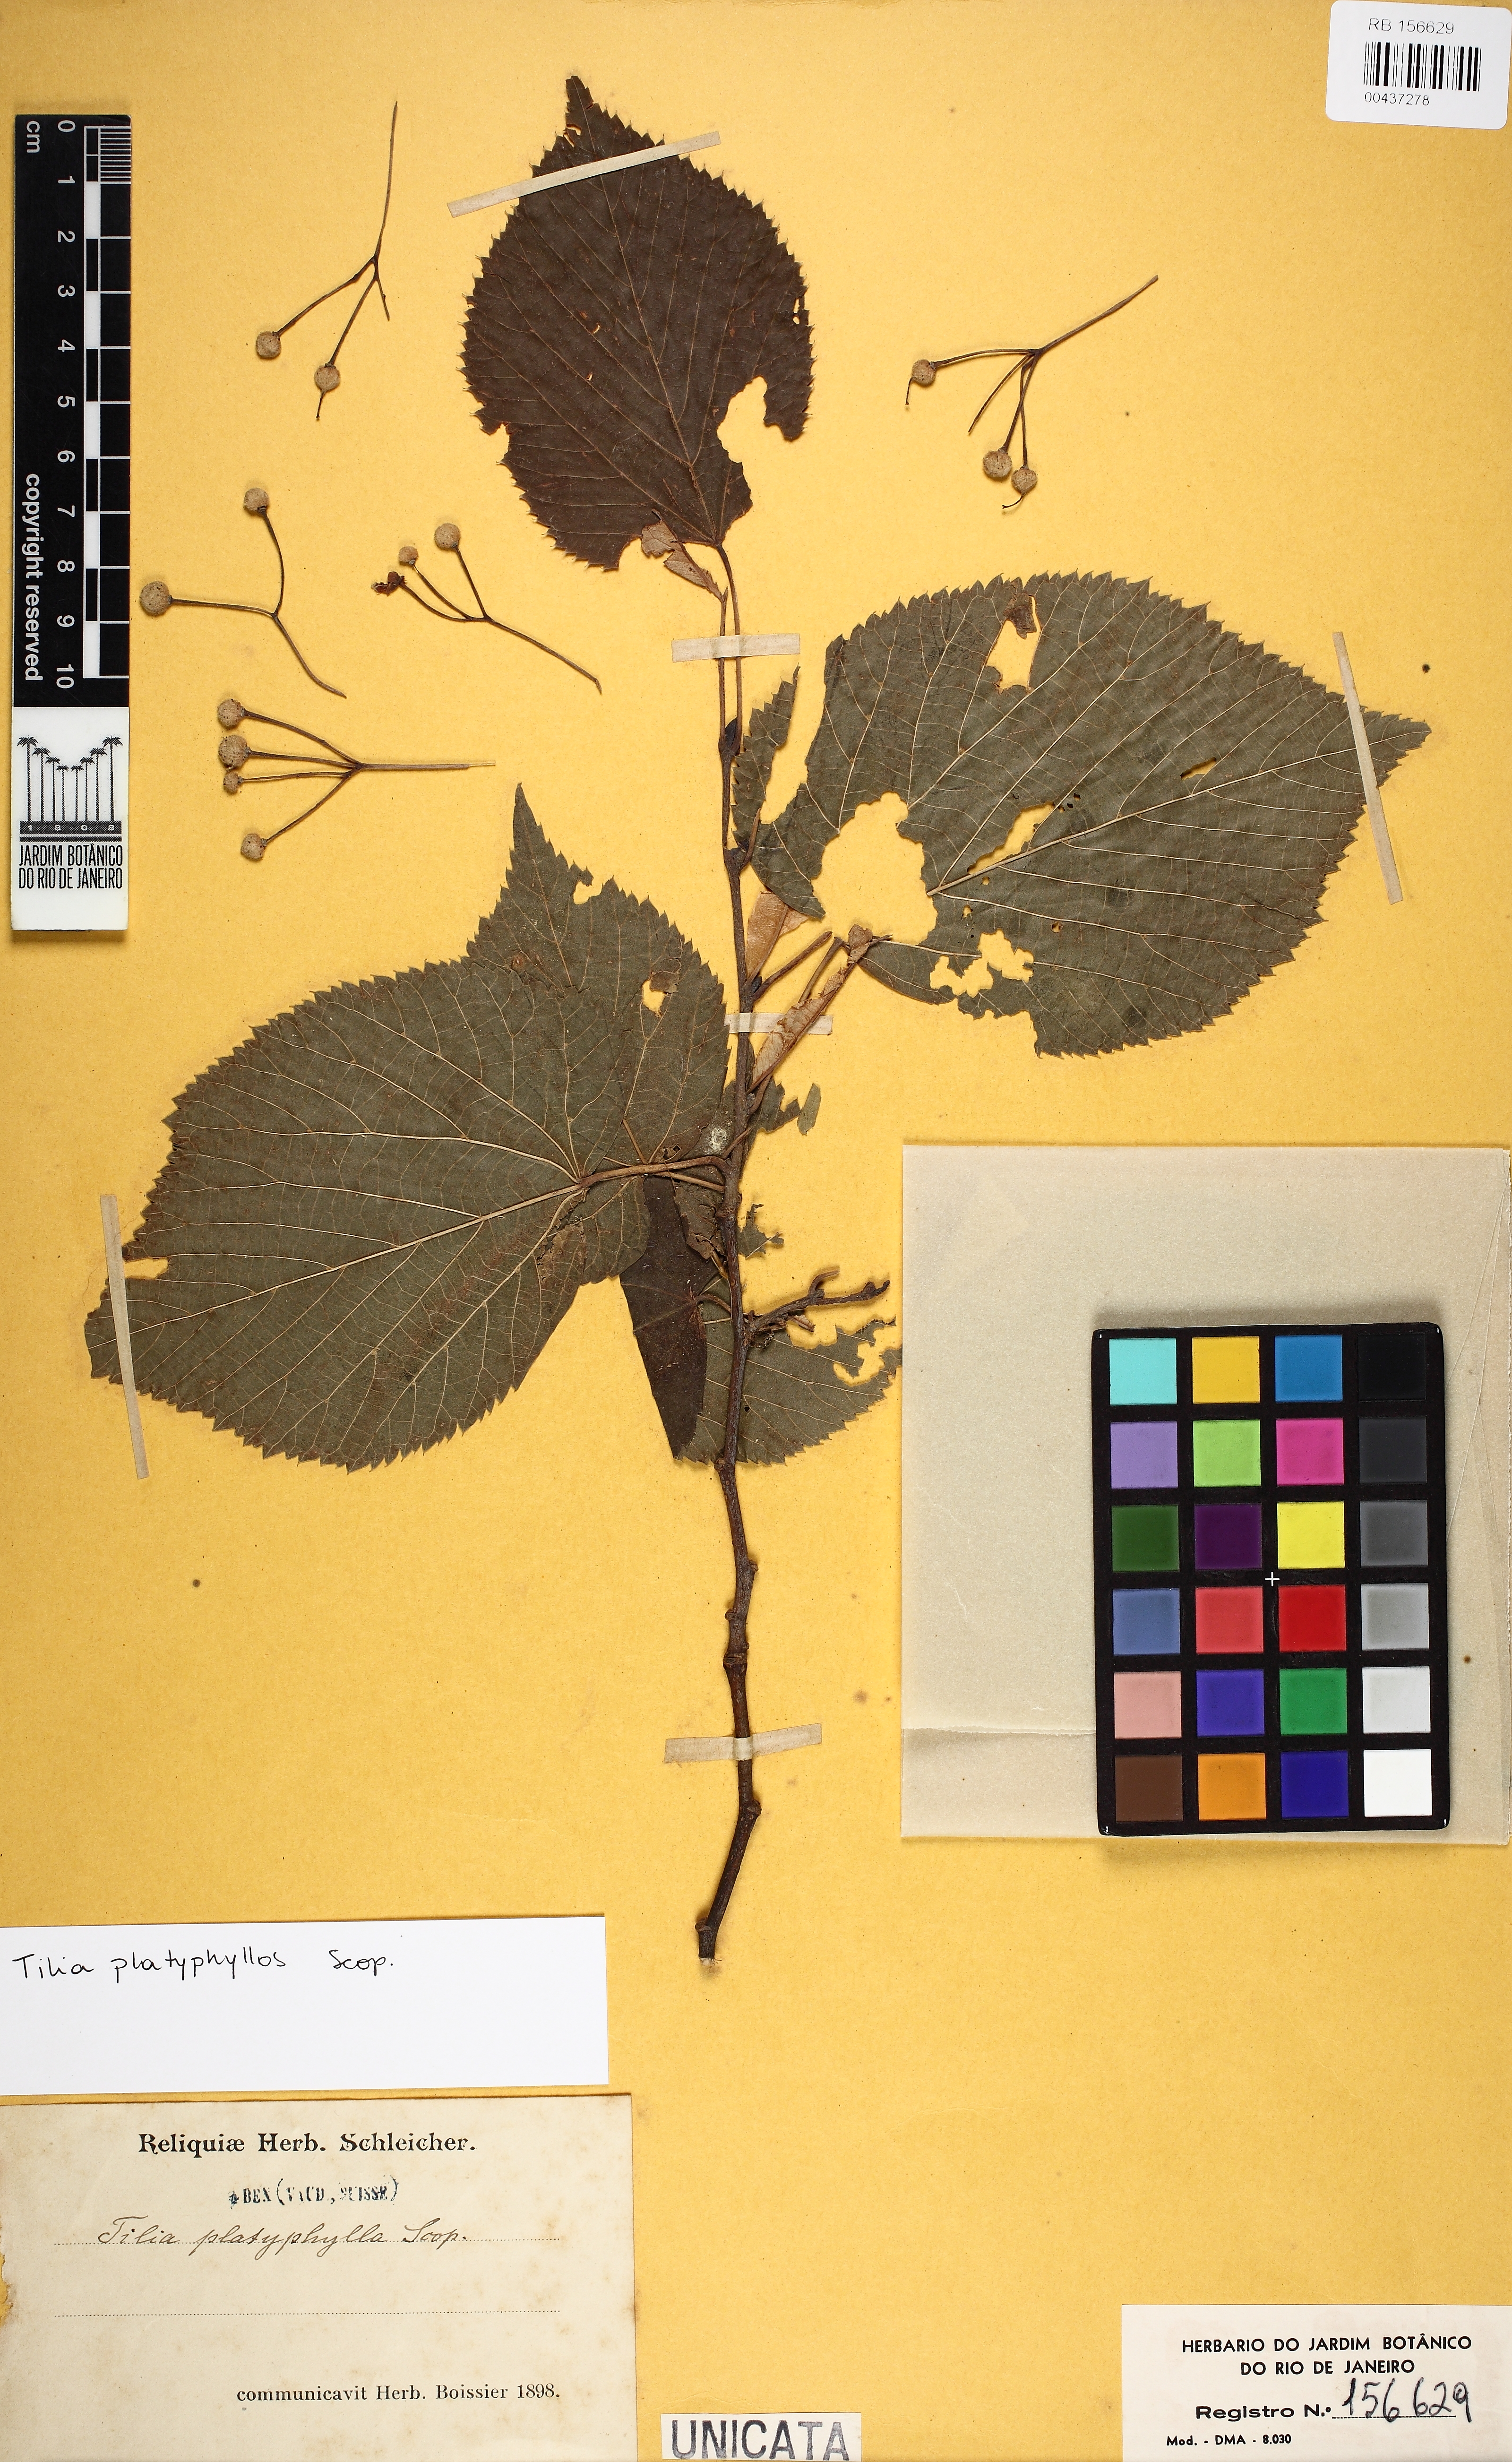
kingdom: Plantae
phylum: Tracheophyta
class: Magnoliopsida
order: Malvales
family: Malvaceae
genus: Tilia
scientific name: Tilia platyphyllos
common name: Large-leaved lime
